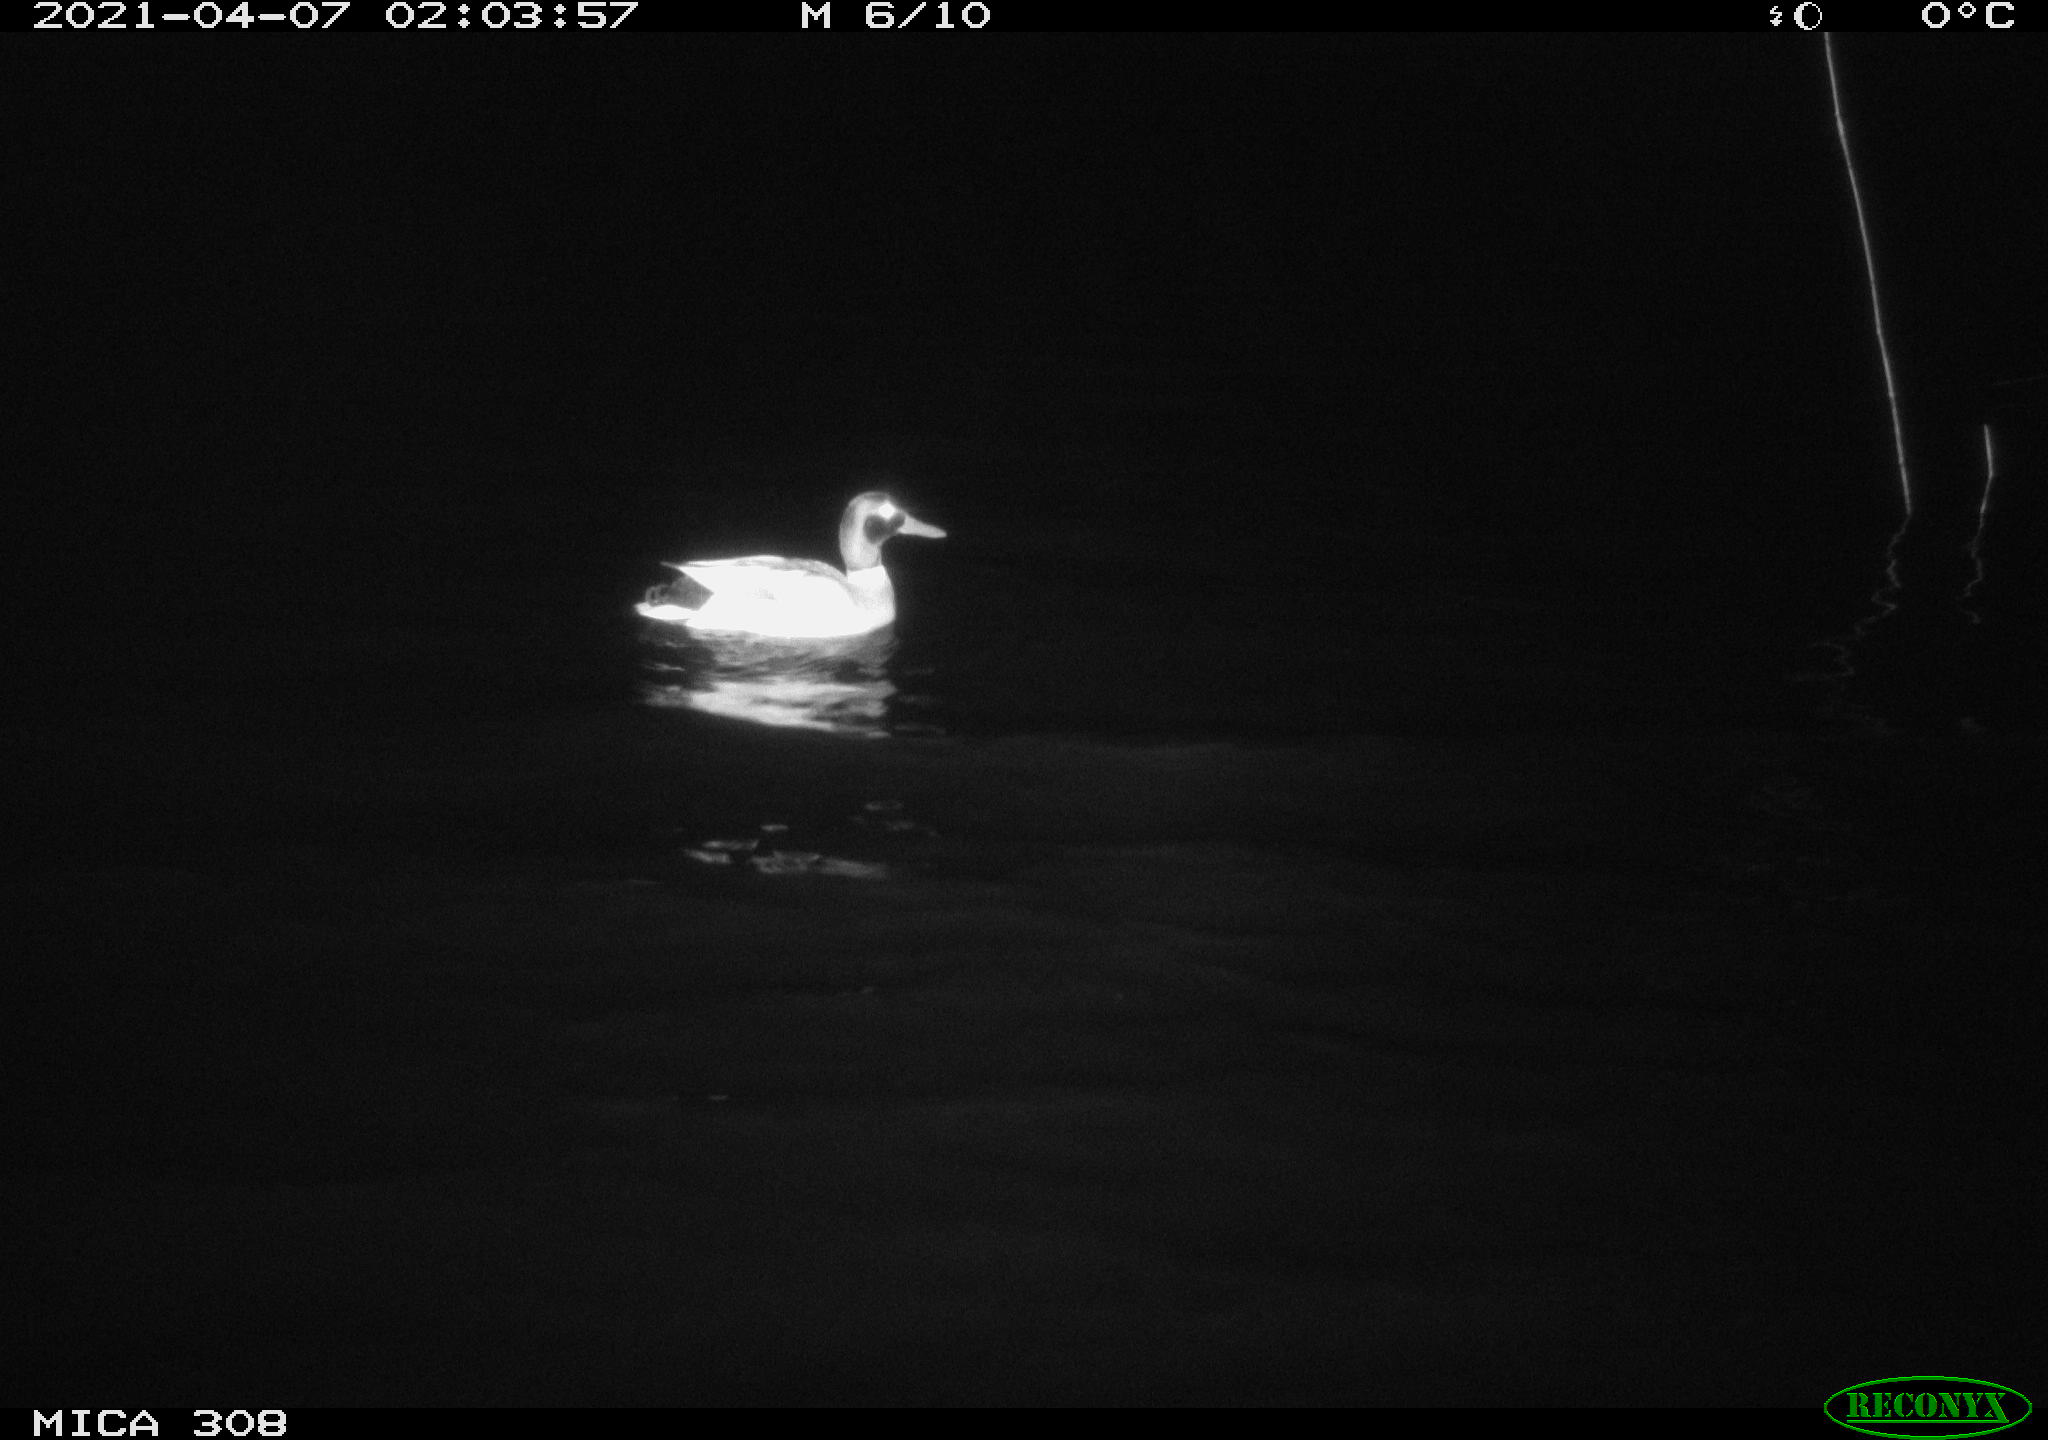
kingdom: Animalia
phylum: Chordata
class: Aves
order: Anseriformes
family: Anatidae
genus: Anas
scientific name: Anas platyrhynchos
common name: Mallard
